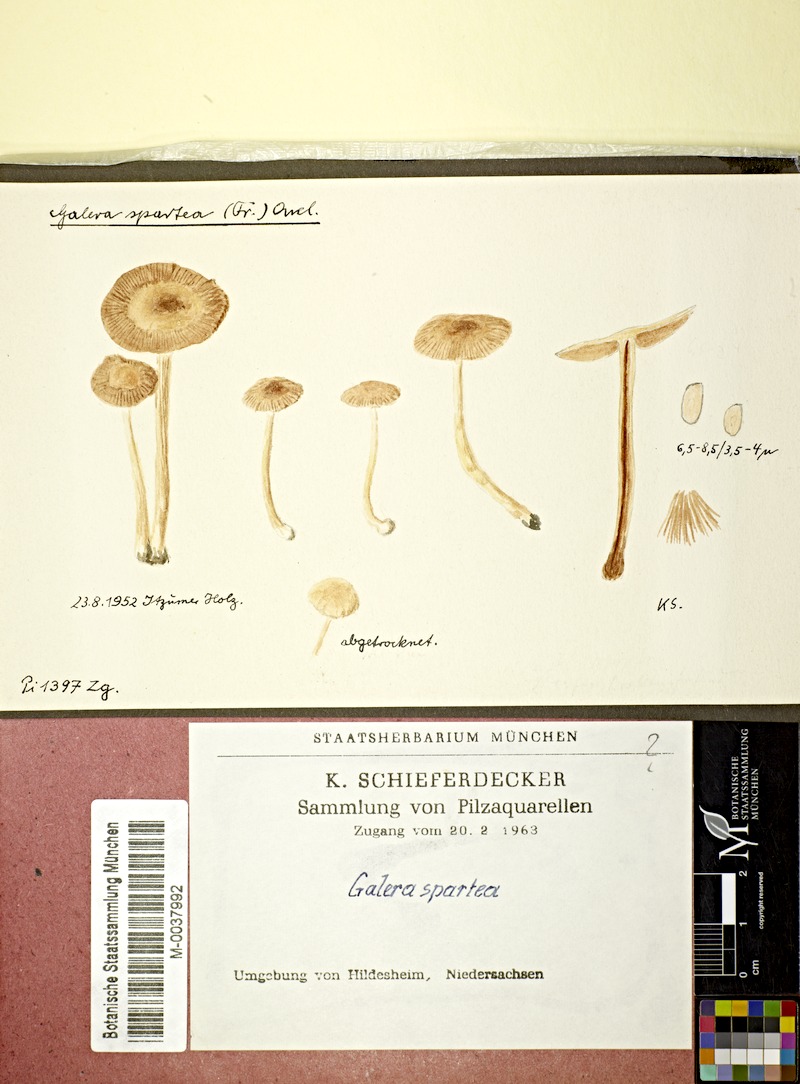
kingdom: Fungi
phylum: Basidiomycota
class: Agaricomycetes
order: Agaricales
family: Bolbitiaceae
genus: Conocybe
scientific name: Conocybe brunneola
